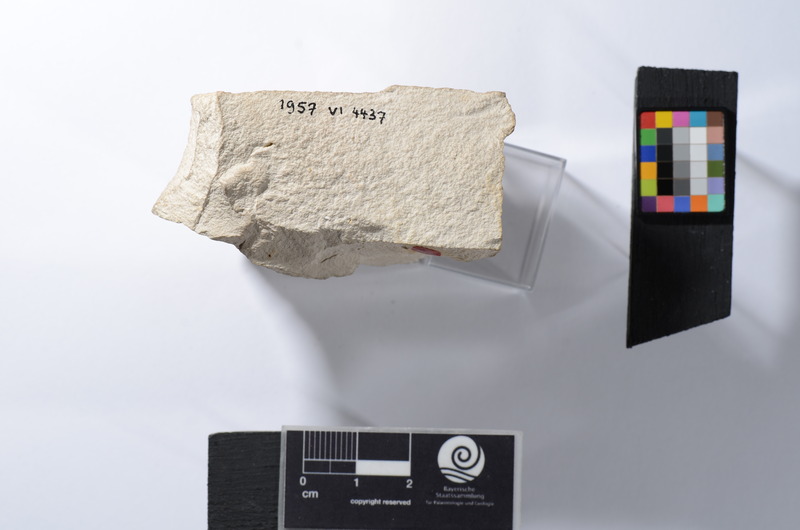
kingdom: Animalia
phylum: Chordata
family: Gyrodontidae
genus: Gyrodus
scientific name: Gyrodus circularis
